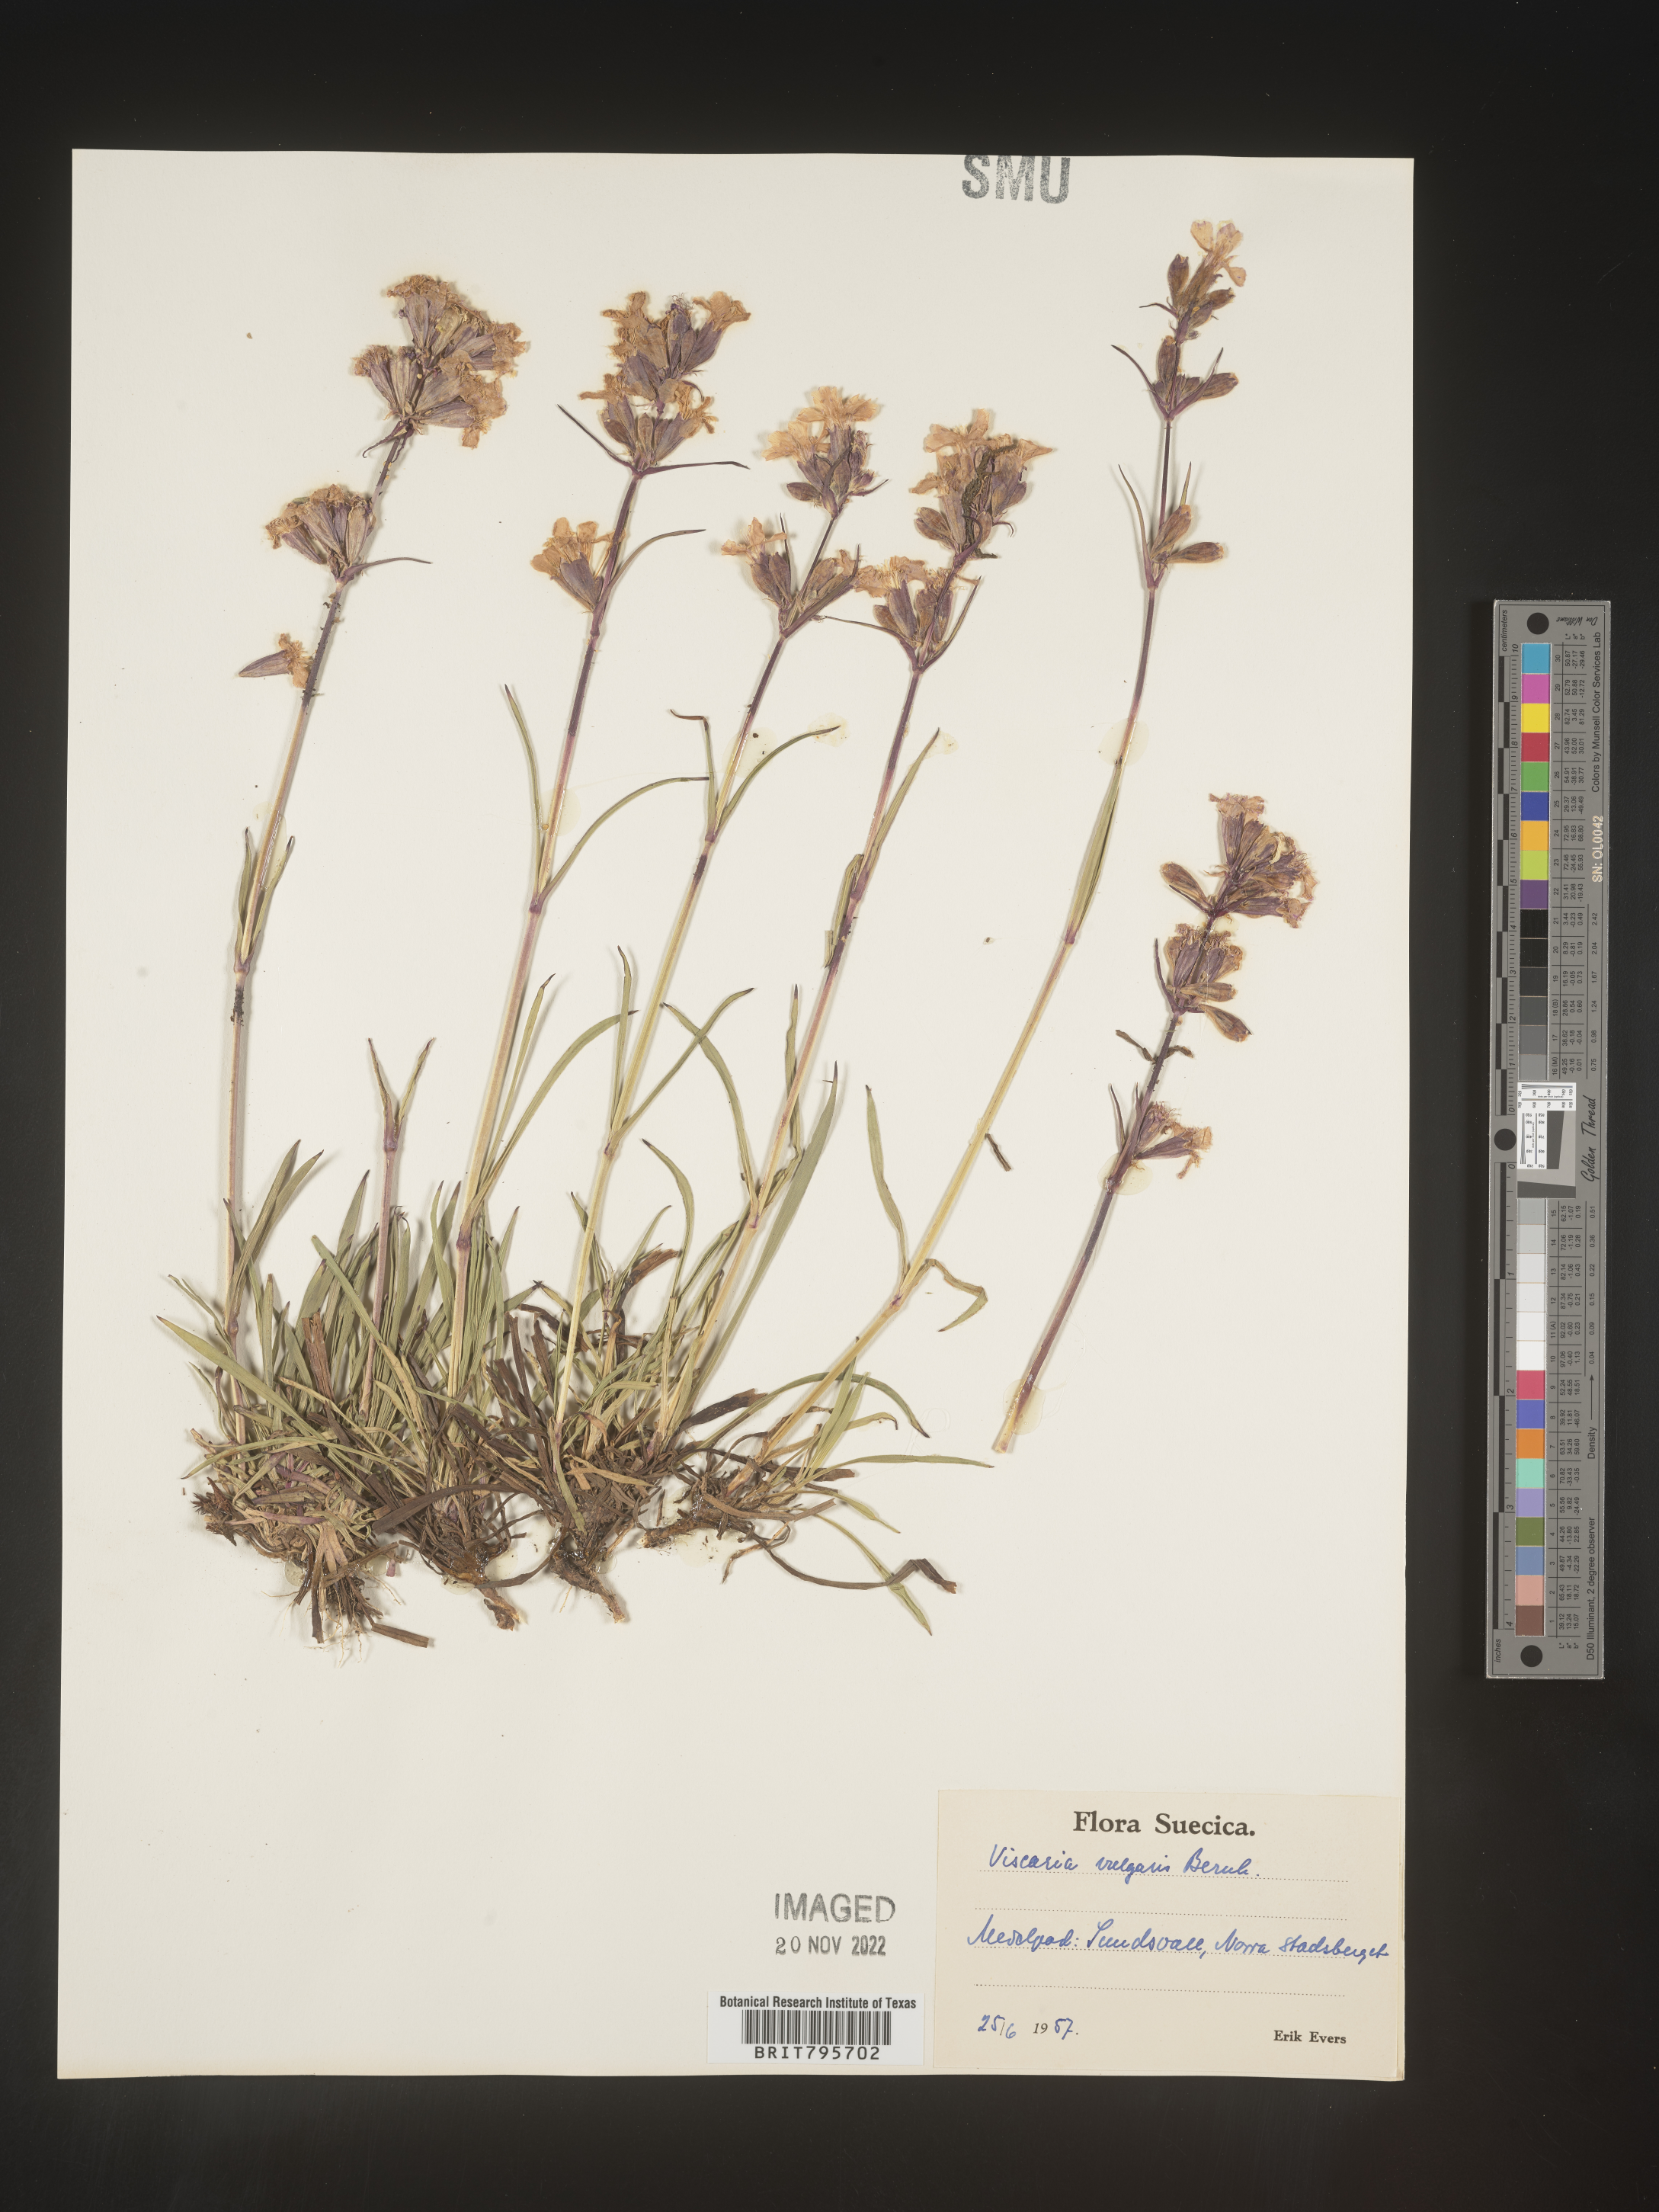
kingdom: Plantae
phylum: Tracheophyta
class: Magnoliopsida
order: Caryophyllales
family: Caryophyllaceae
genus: Viscaria
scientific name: Viscaria
